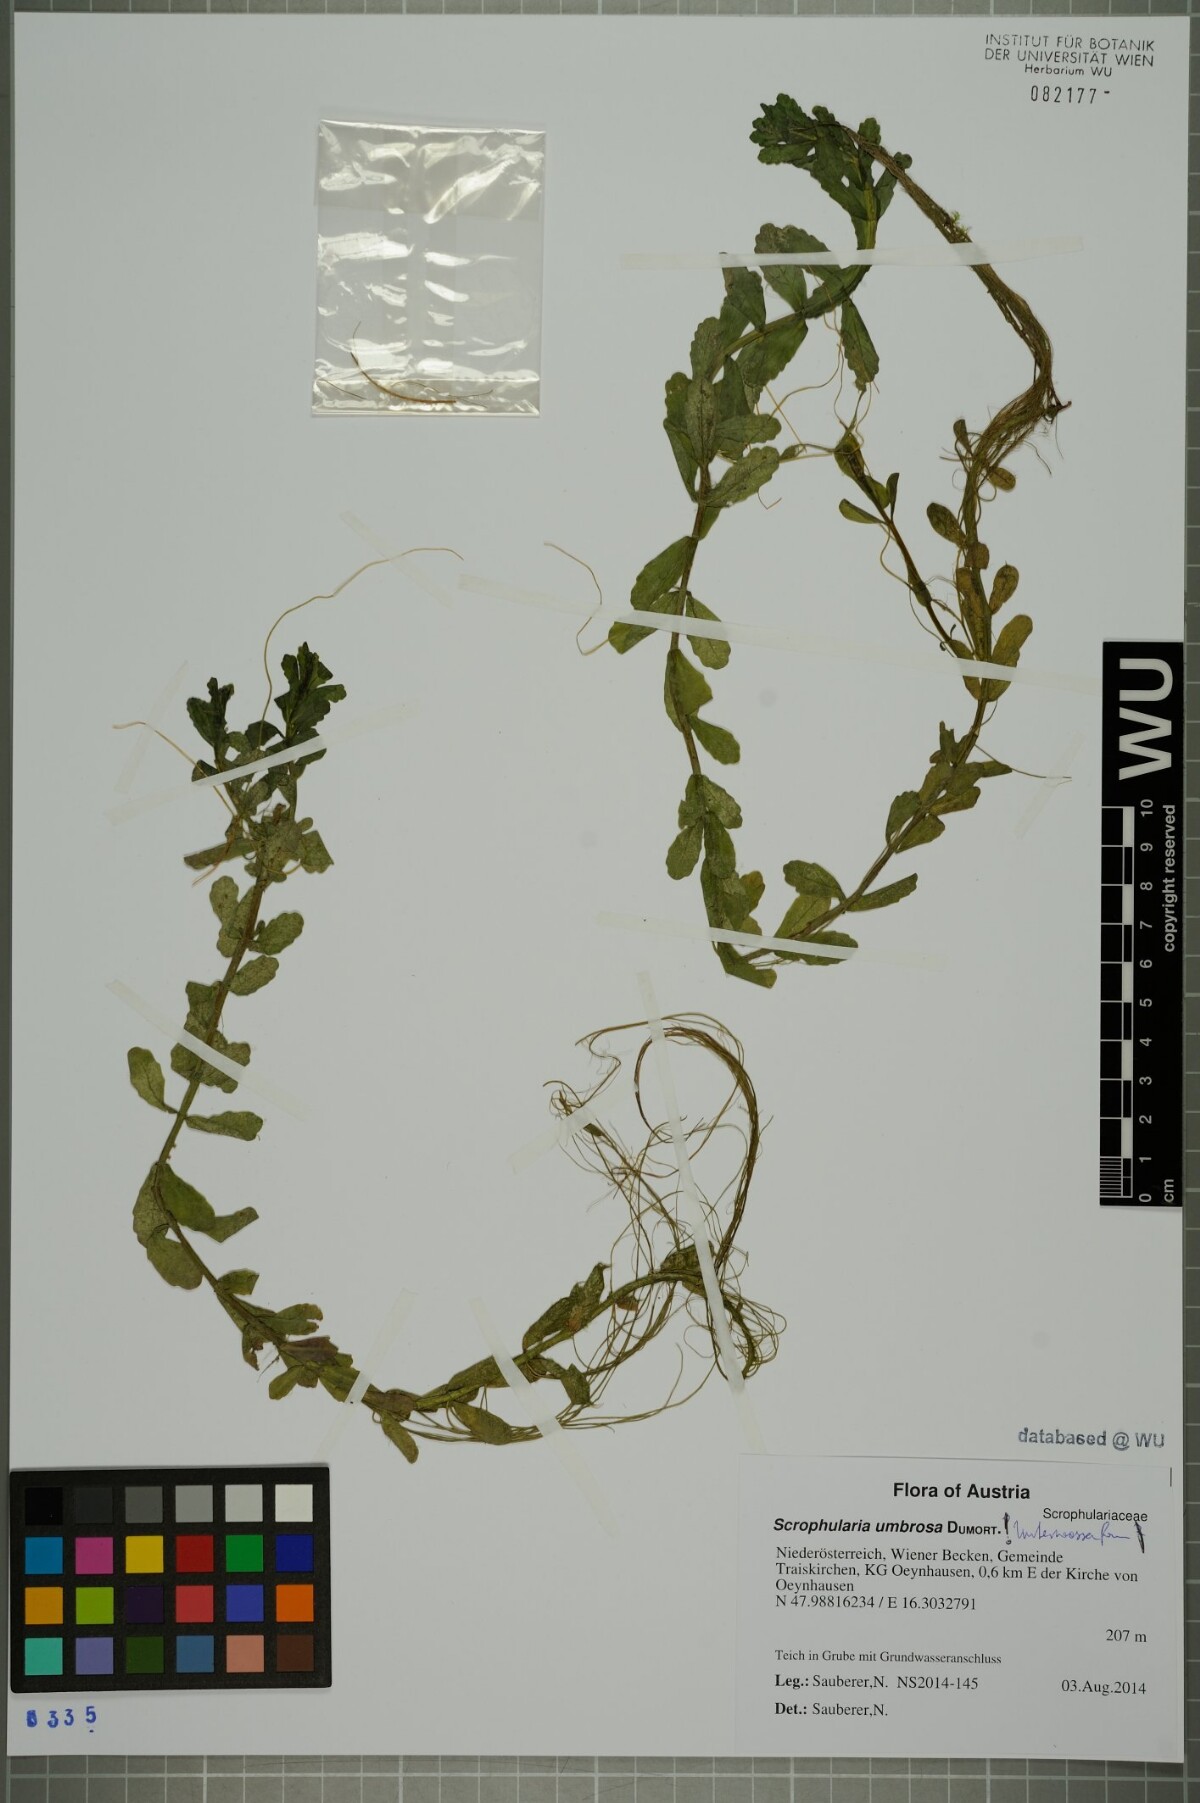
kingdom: Plantae
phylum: Tracheophyta
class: Magnoliopsida
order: Lamiales
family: Scrophulariaceae
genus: Scrophularia
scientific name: Scrophularia umbrosa
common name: Green figwort
